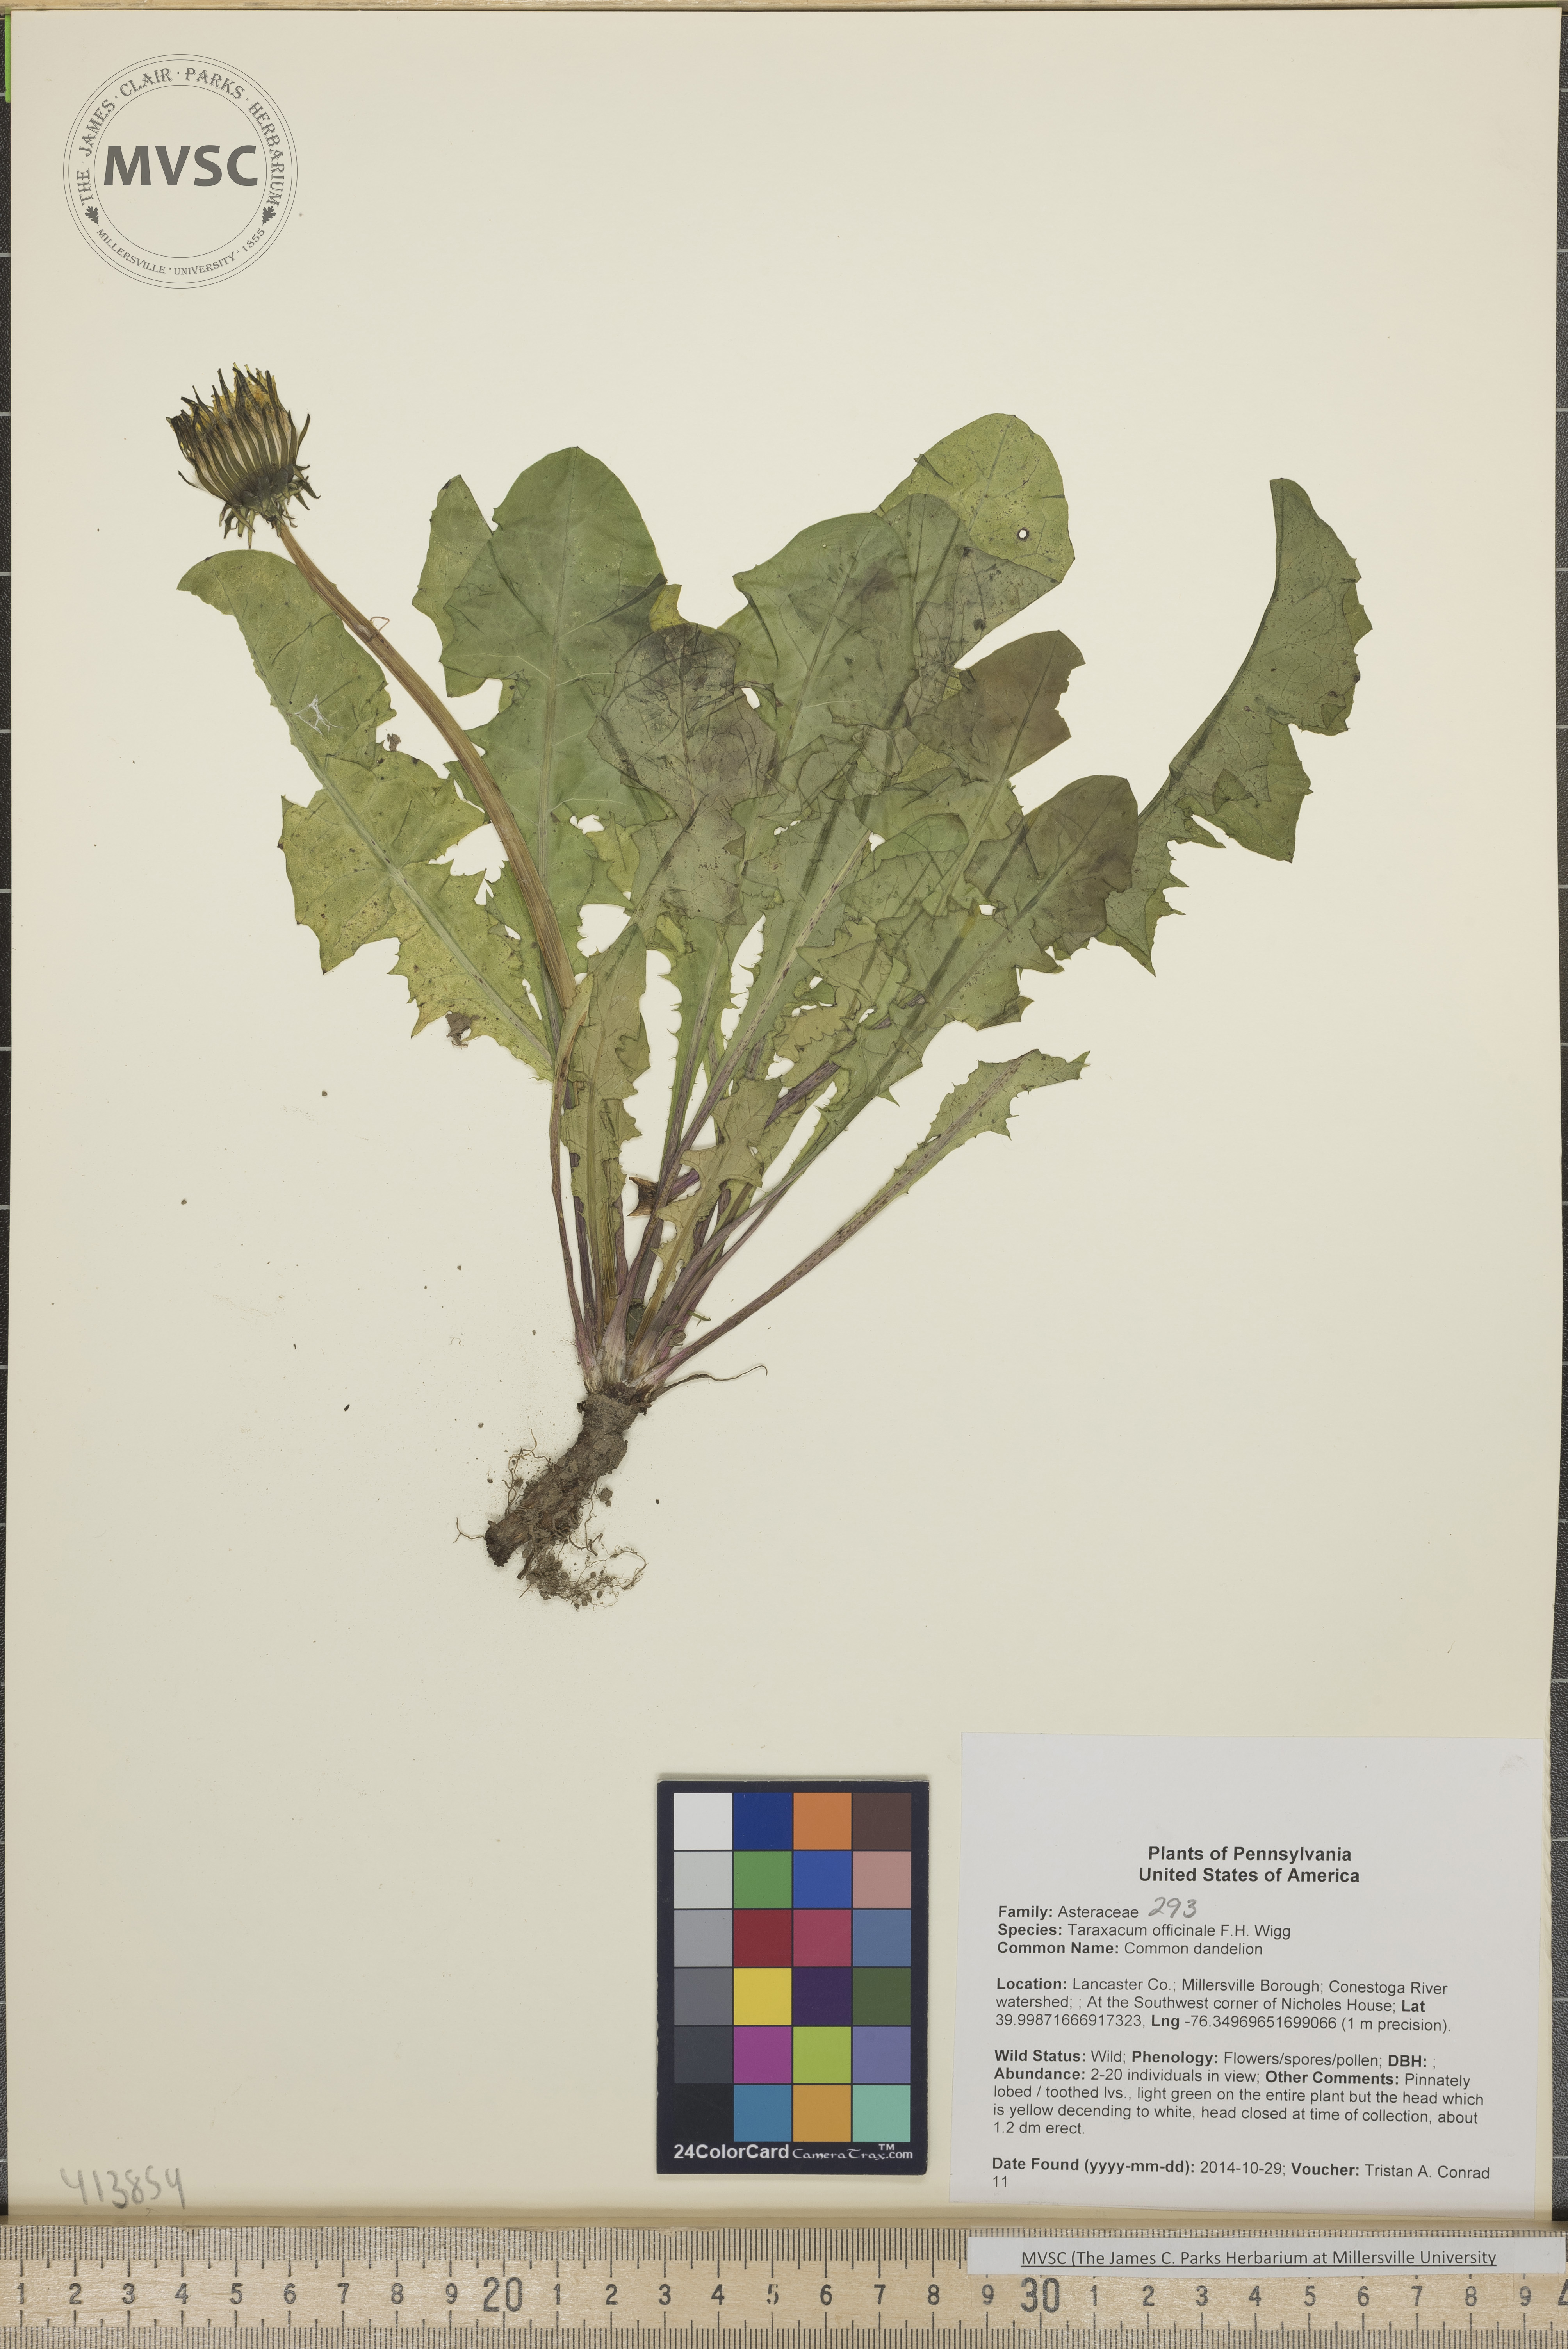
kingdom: Plantae
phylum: Tracheophyta
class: Magnoliopsida
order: Asterales
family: Asteraceae
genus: Taraxacum
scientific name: Taraxacum officinale
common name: Common dandelion
